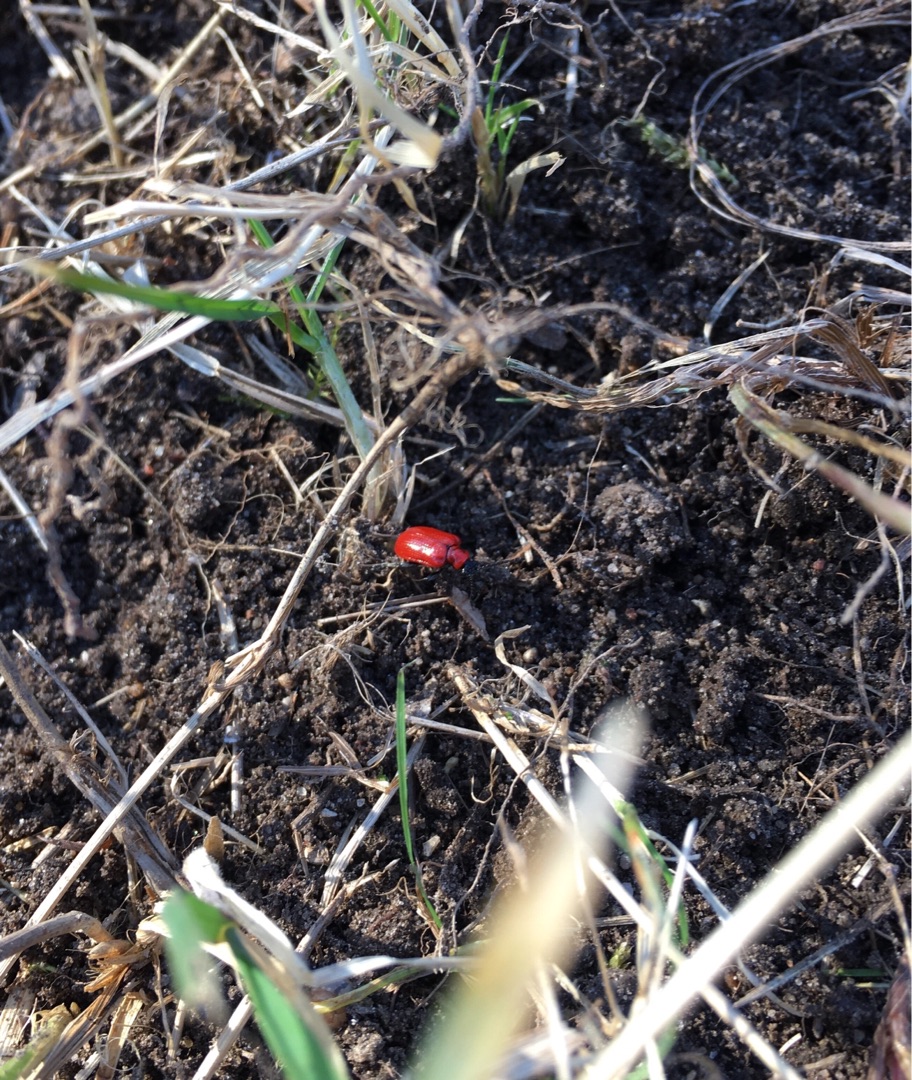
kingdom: Animalia
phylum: Arthropoda
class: Insecta
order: Coleoptera
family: Chrysomelidae
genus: Lilioceris
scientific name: Lilioceris lilii
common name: Liljebille
